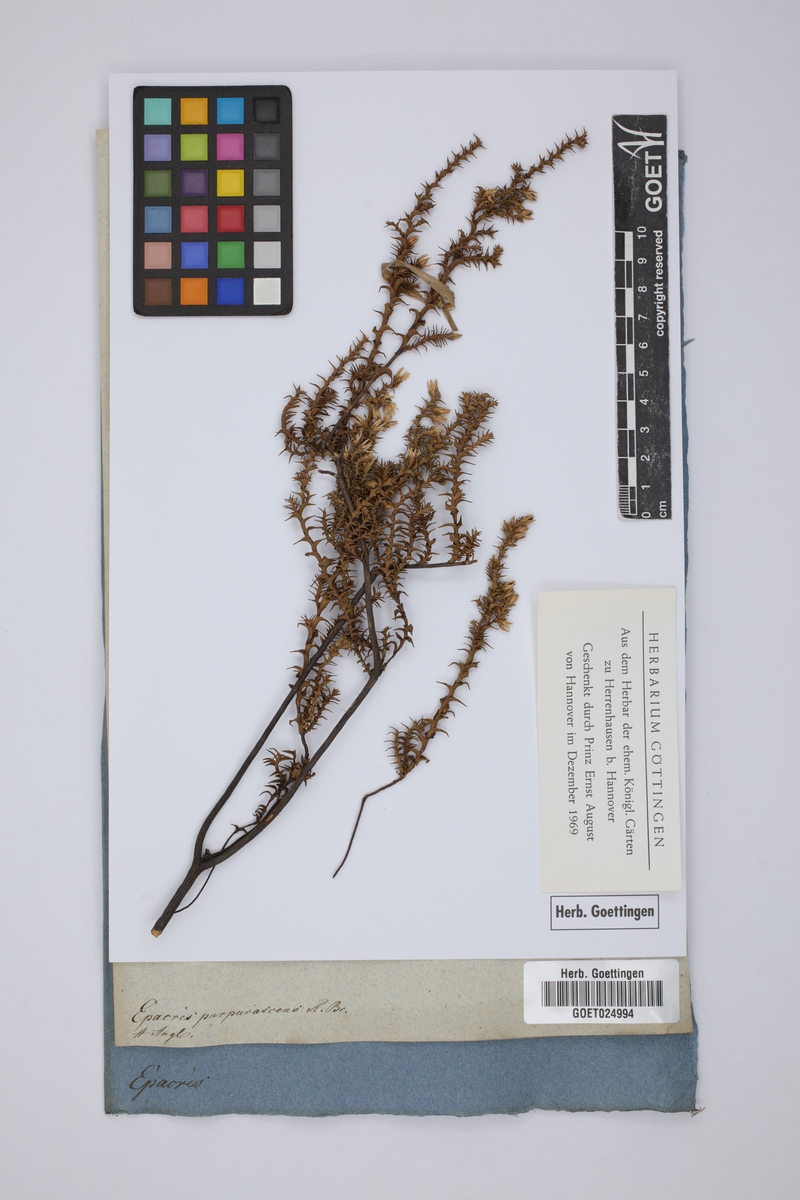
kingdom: Plantae
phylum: Tracheophyta
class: Magnoliopsida
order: Ericales
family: Ericaceae
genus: Epacris
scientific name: Epacris purpurascens
